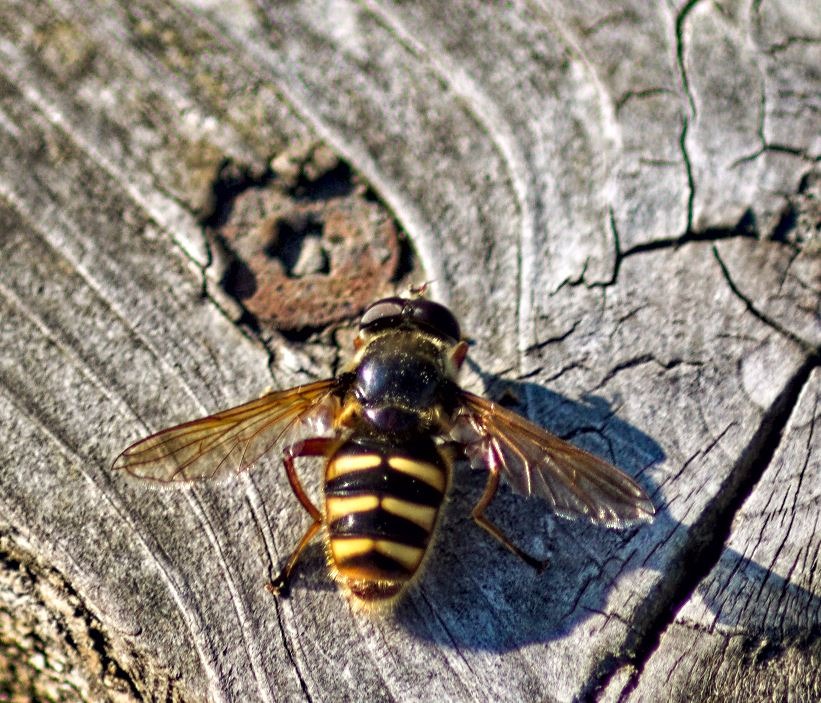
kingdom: Animalia
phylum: Arthropoda
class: Insecta
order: Diptera
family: Syrphidae
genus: Sericomyia
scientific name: Sericomyia silentis
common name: Tørve-silkesvirreflue
